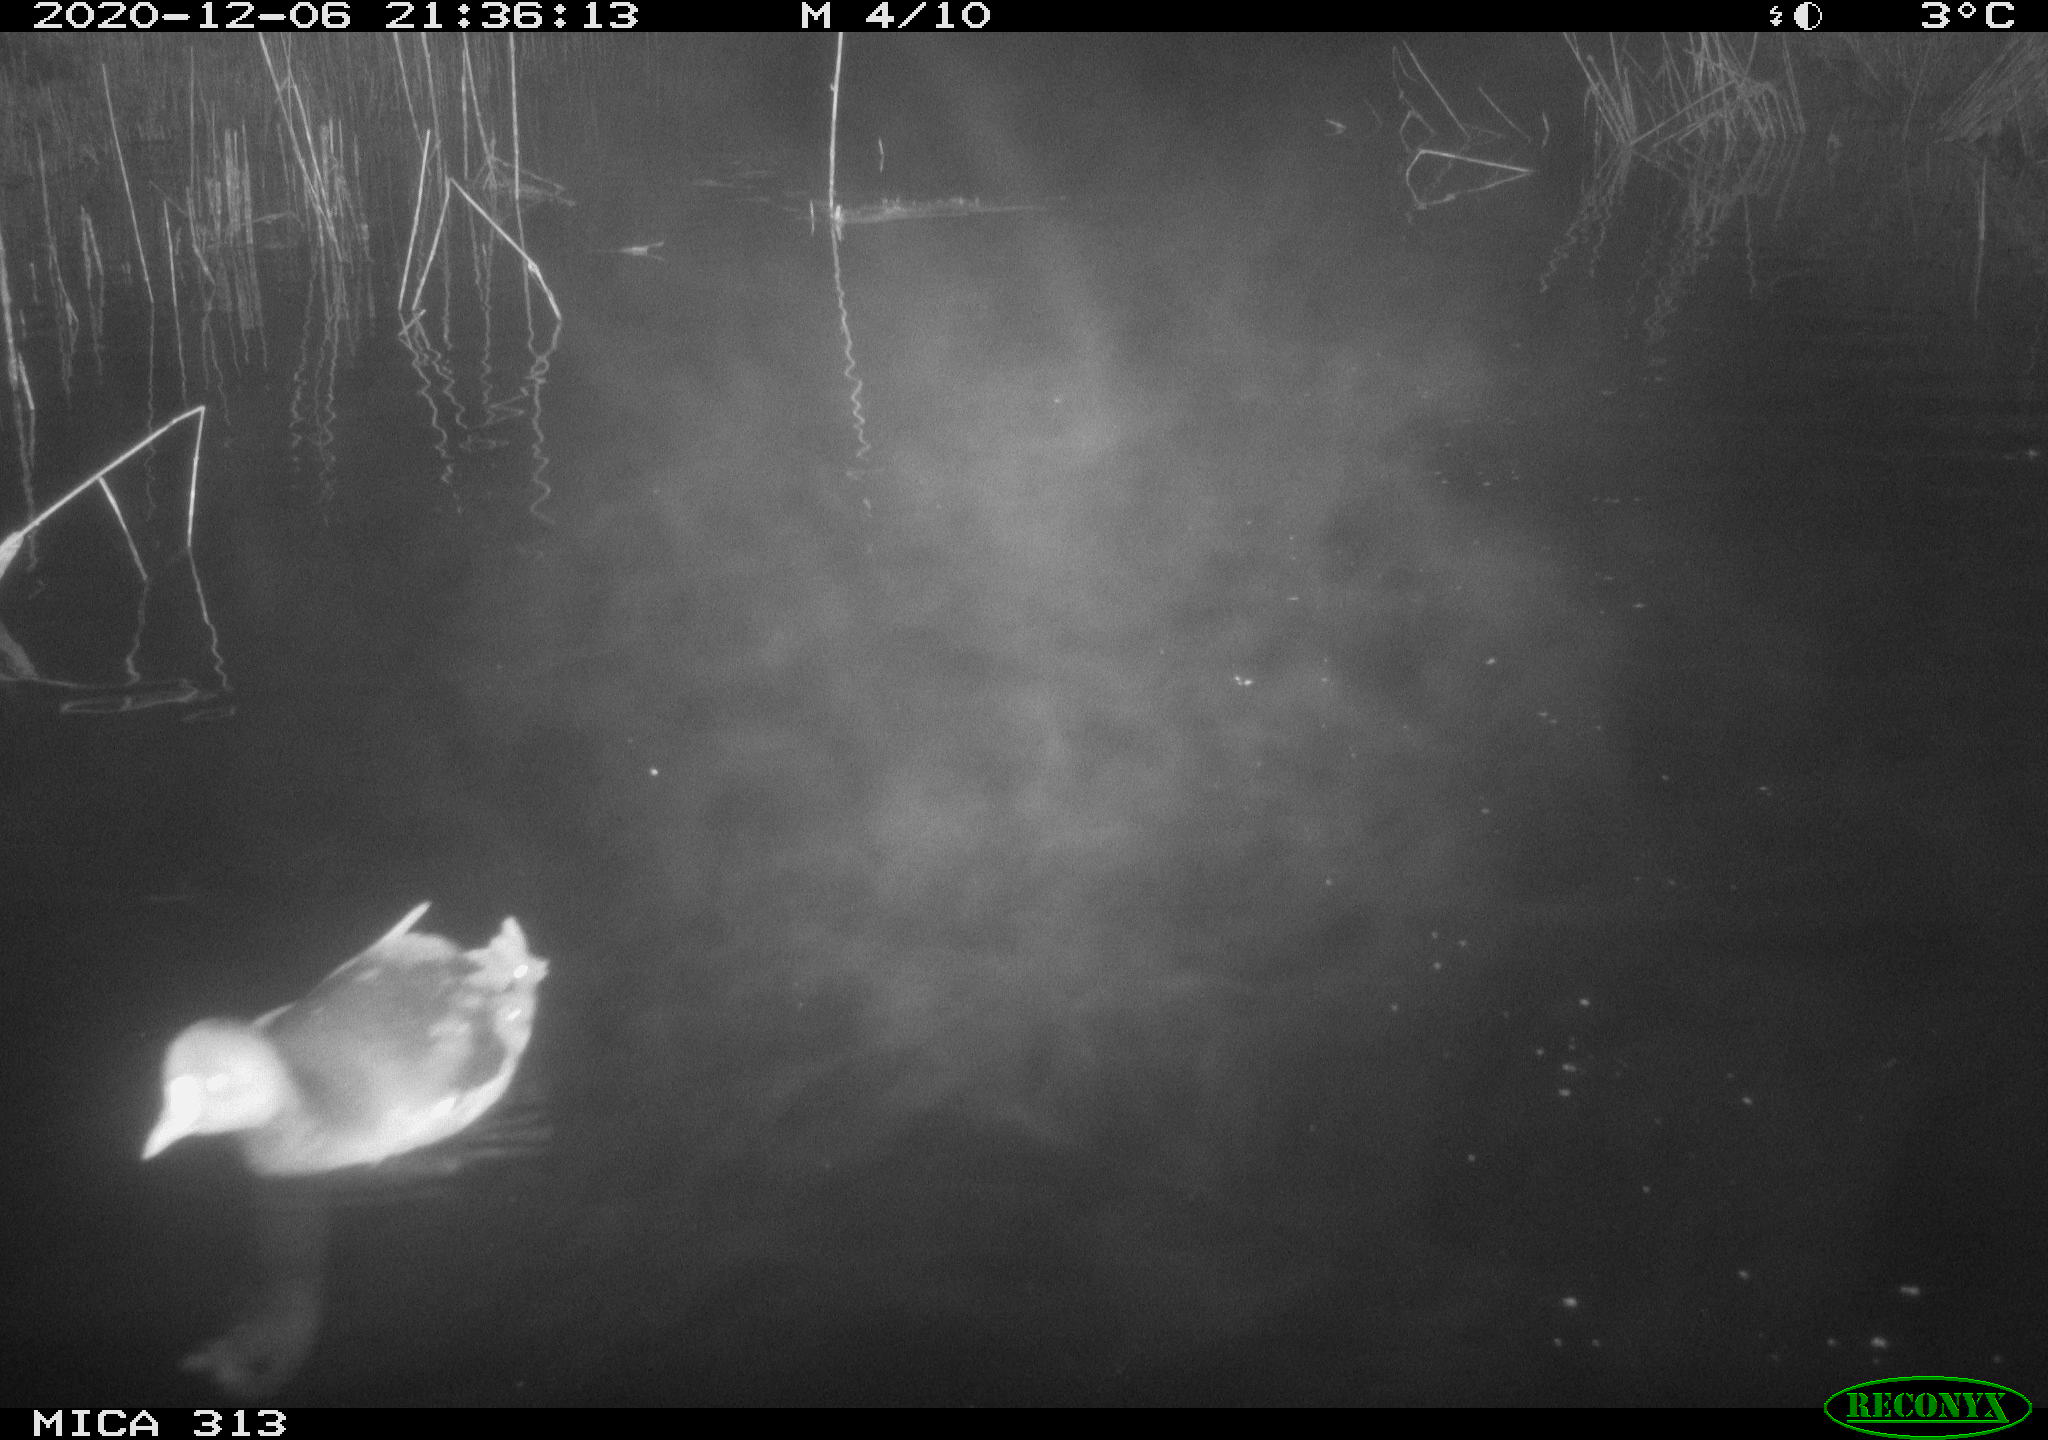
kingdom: Animalia
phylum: Chordata
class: Aves
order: Gruiformes
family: Rallidae
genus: Gallinula
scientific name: Gallinula chloropus
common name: Common moorhen
